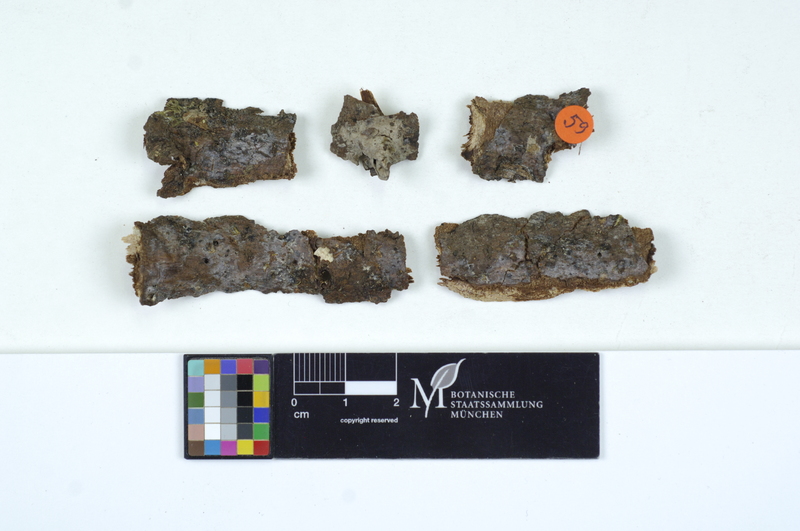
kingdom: Fungi
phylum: Basidiomycota
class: Agaricomycetes
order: Sebacinales
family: Sebacinaceae
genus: Sebacina
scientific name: Sebacina grisea
